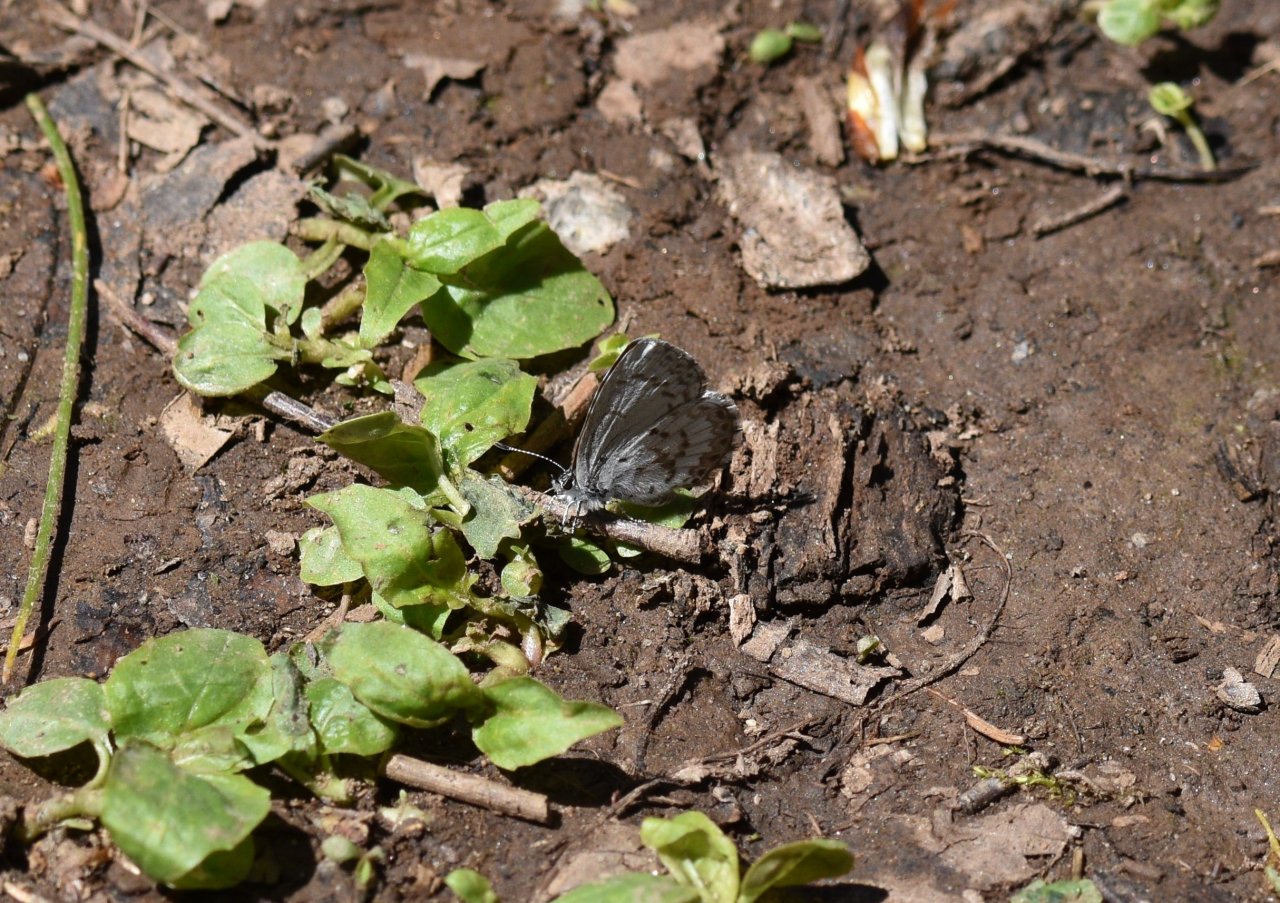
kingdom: Animalia
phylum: Arthropoda
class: Insecta
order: Lepidoptera
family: Lycaenidae
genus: Celastrina
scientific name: Celastrina lucia
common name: Northern Spring Azure
